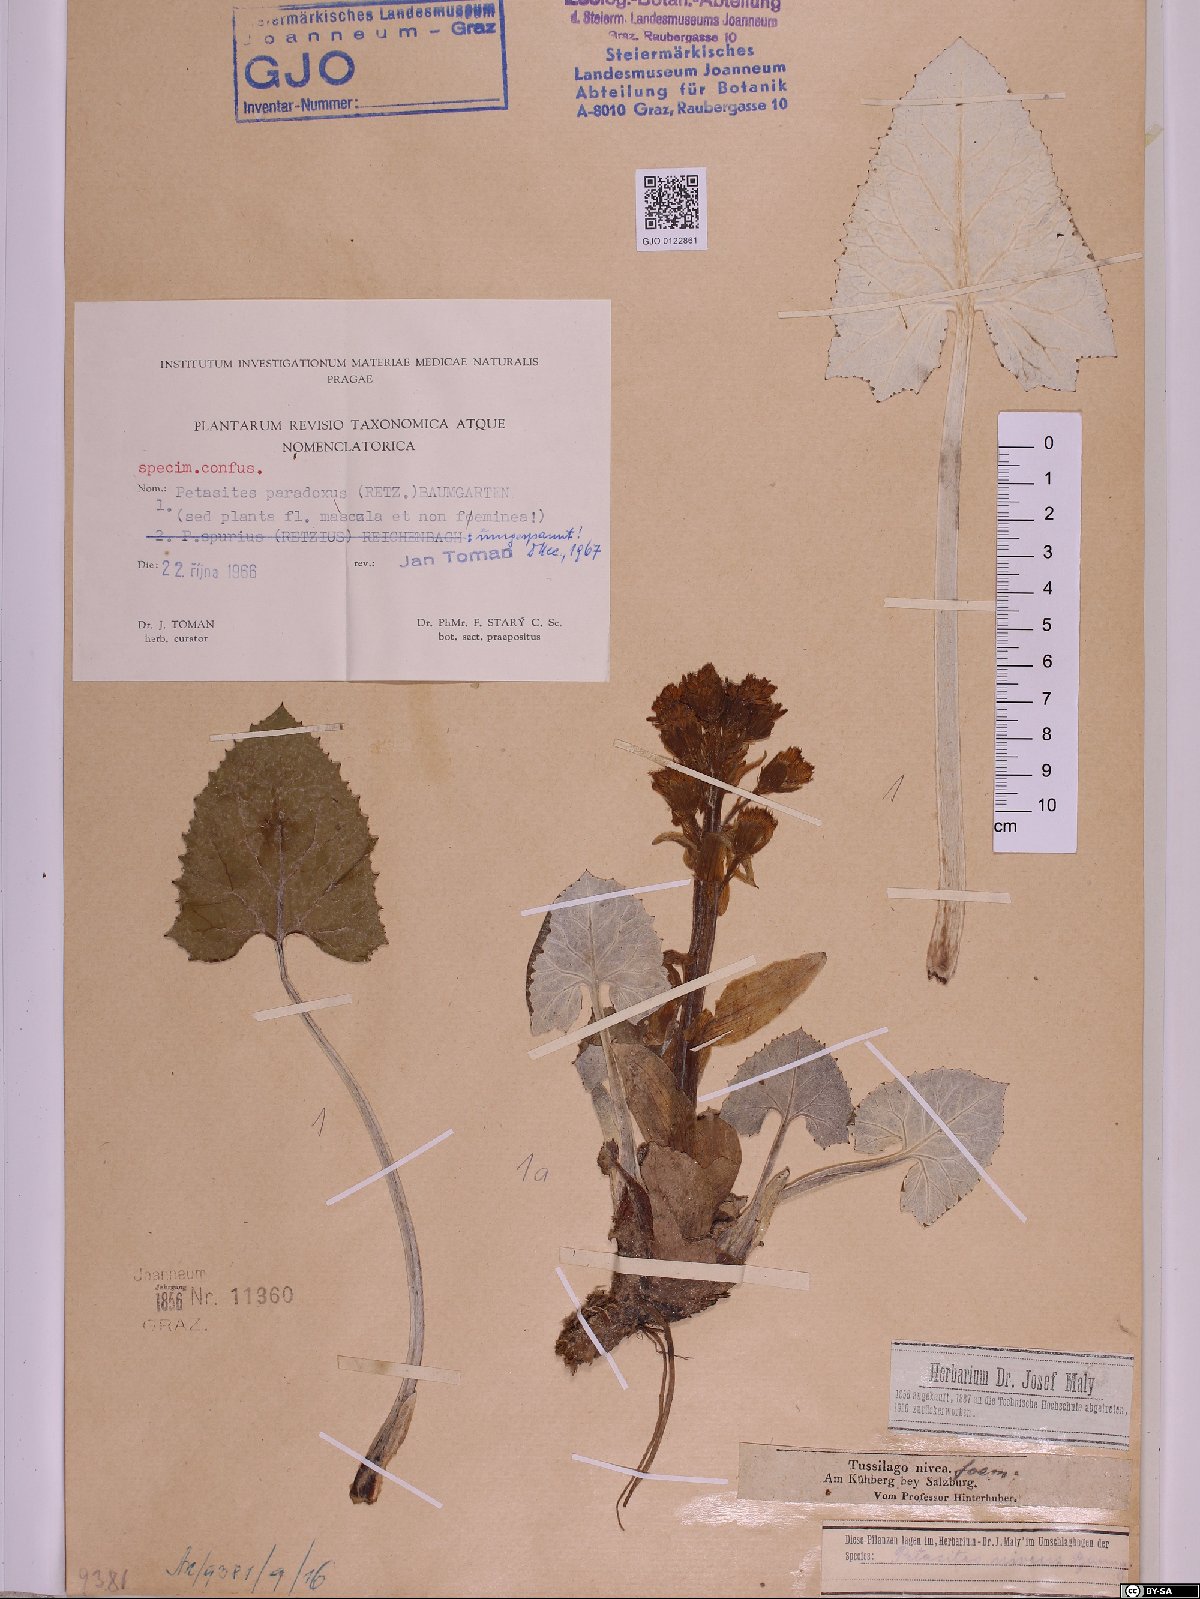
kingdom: Plantae
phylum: Tracheophyta
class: Magnoliopsida
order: Asterales
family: Asteraceae
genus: Petasites
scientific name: Petasites paradoxus
